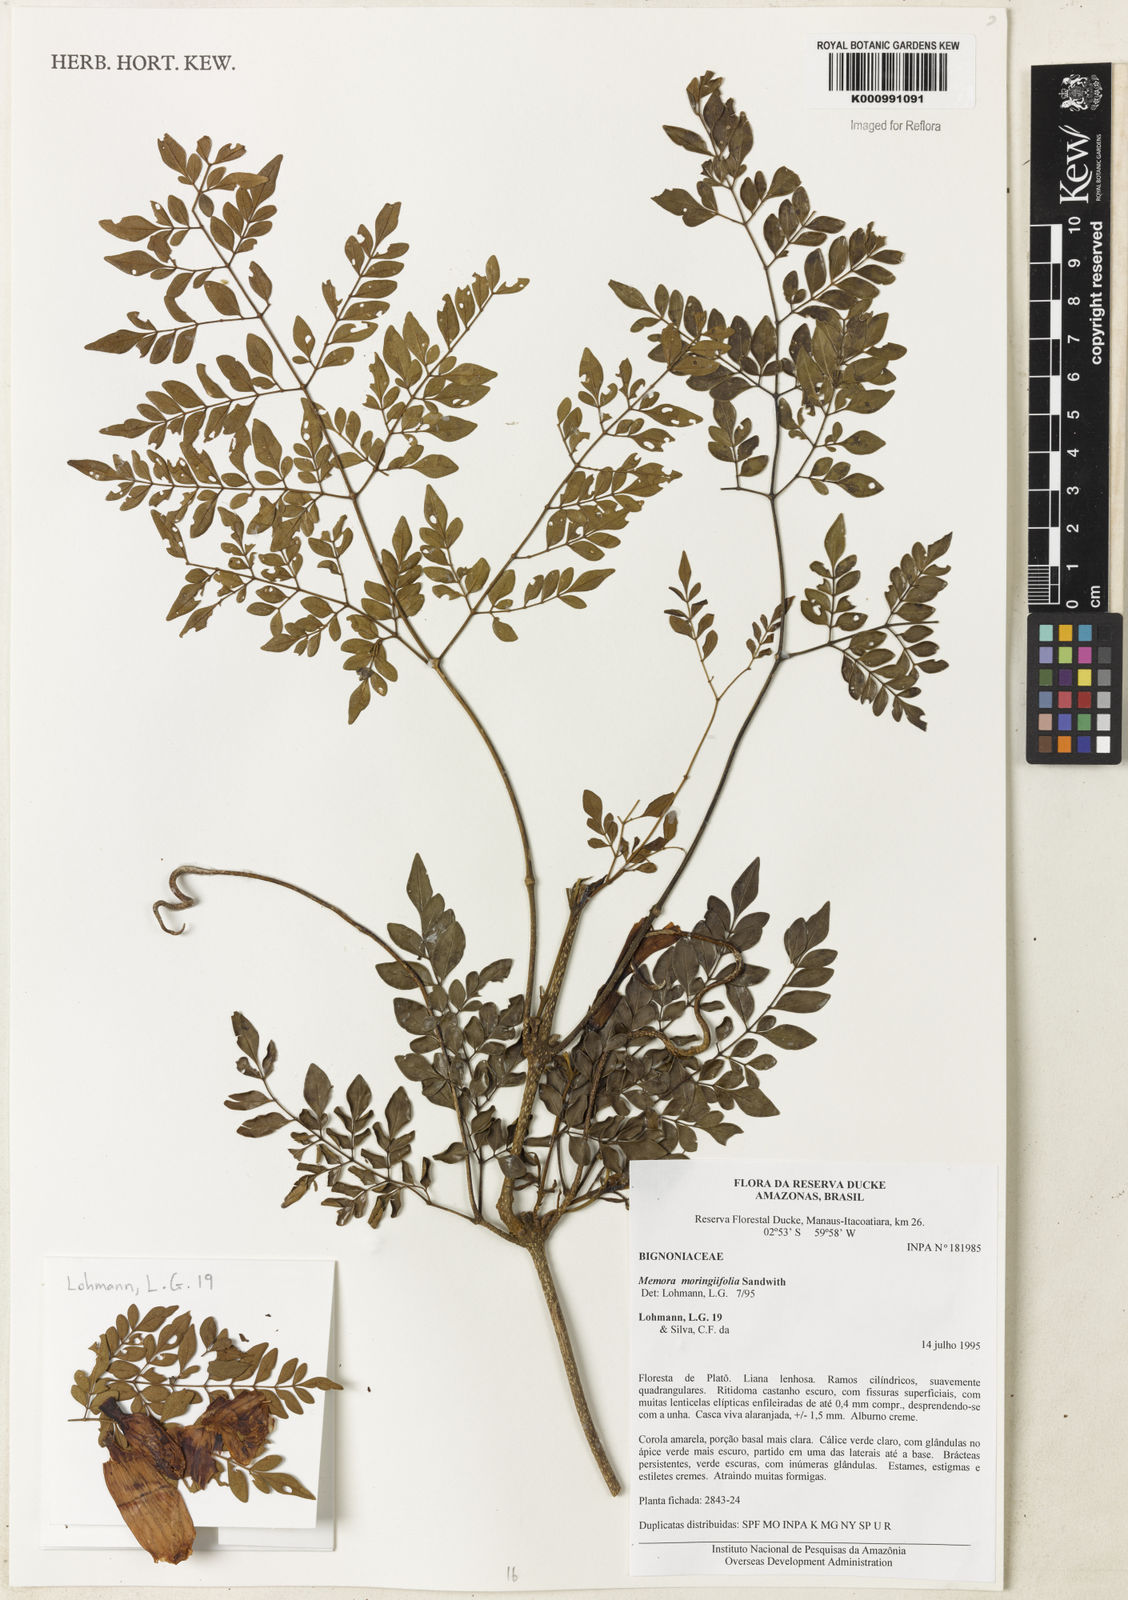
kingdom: Plantae
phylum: Tracheophyta
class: Magnoliopsida
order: Lamiales
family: Bignoniaceae
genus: Adenocalymma
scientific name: Adenocalymma moringifolium
